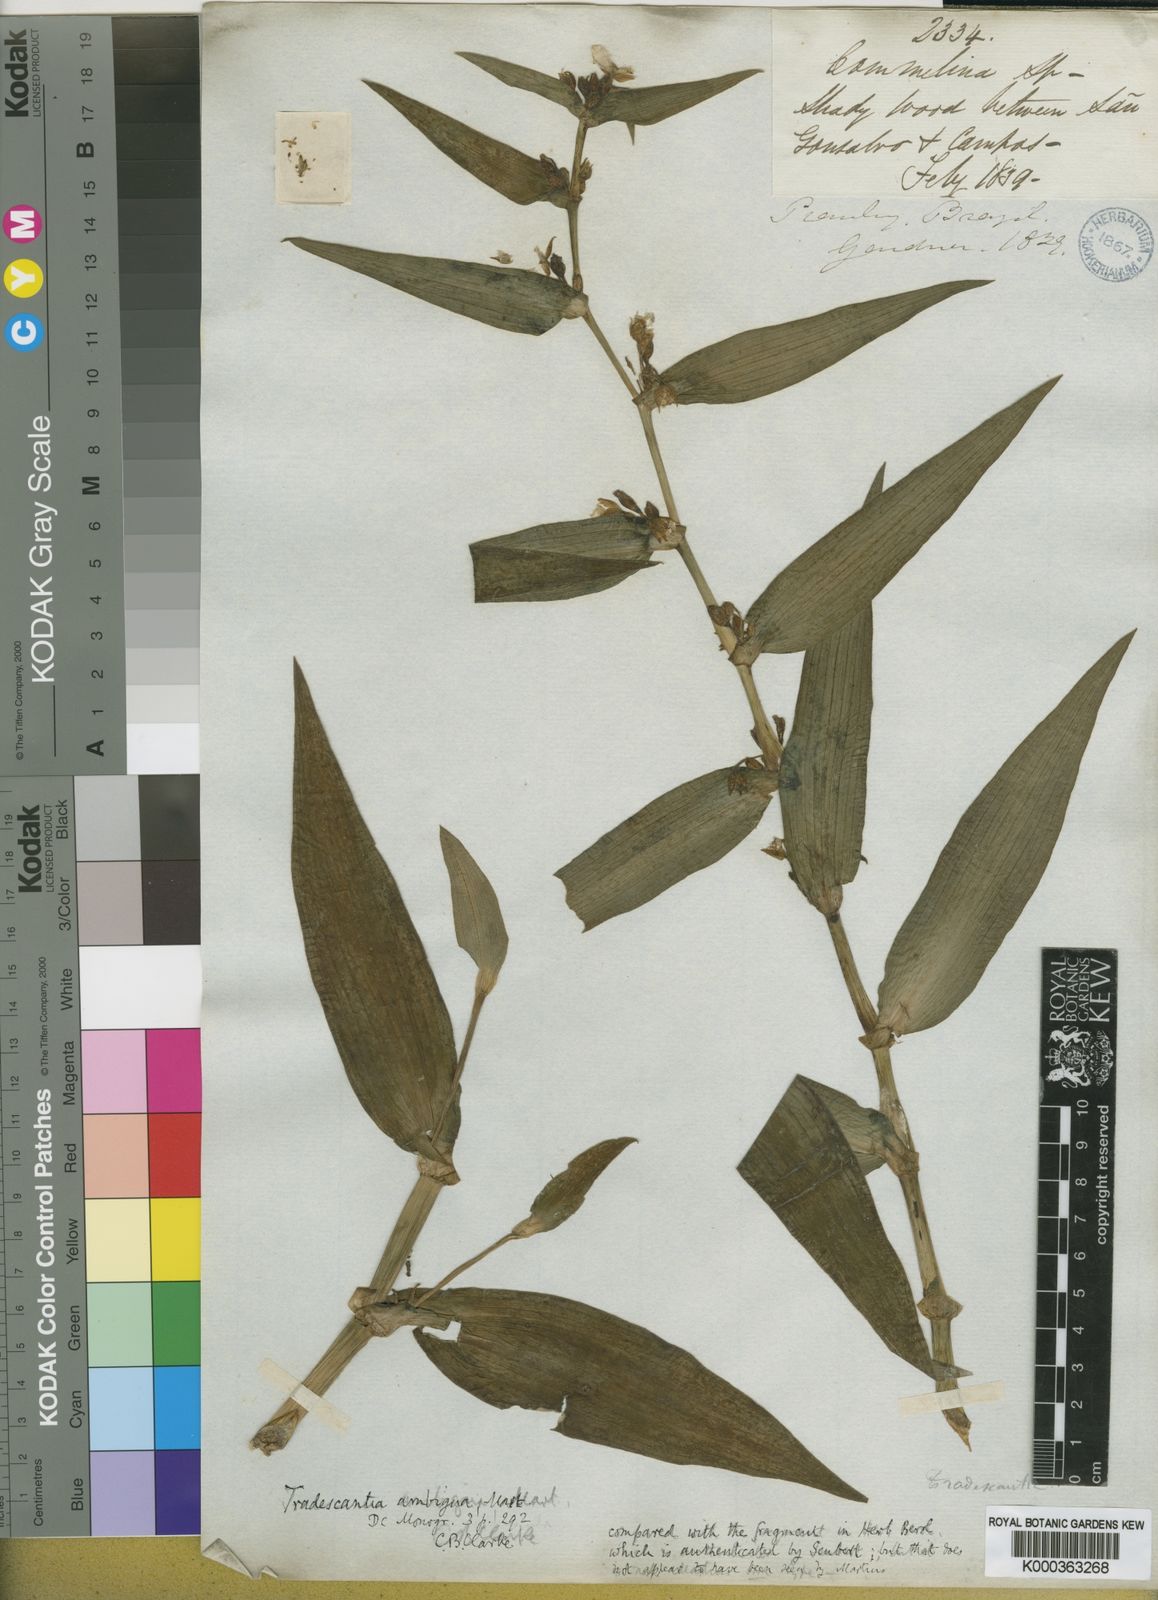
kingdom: Plantae
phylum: Tracheophyta
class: Liliopsida
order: Commelinales
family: Commelinaceae
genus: Tradescantia
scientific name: Tradescantia ambigua
